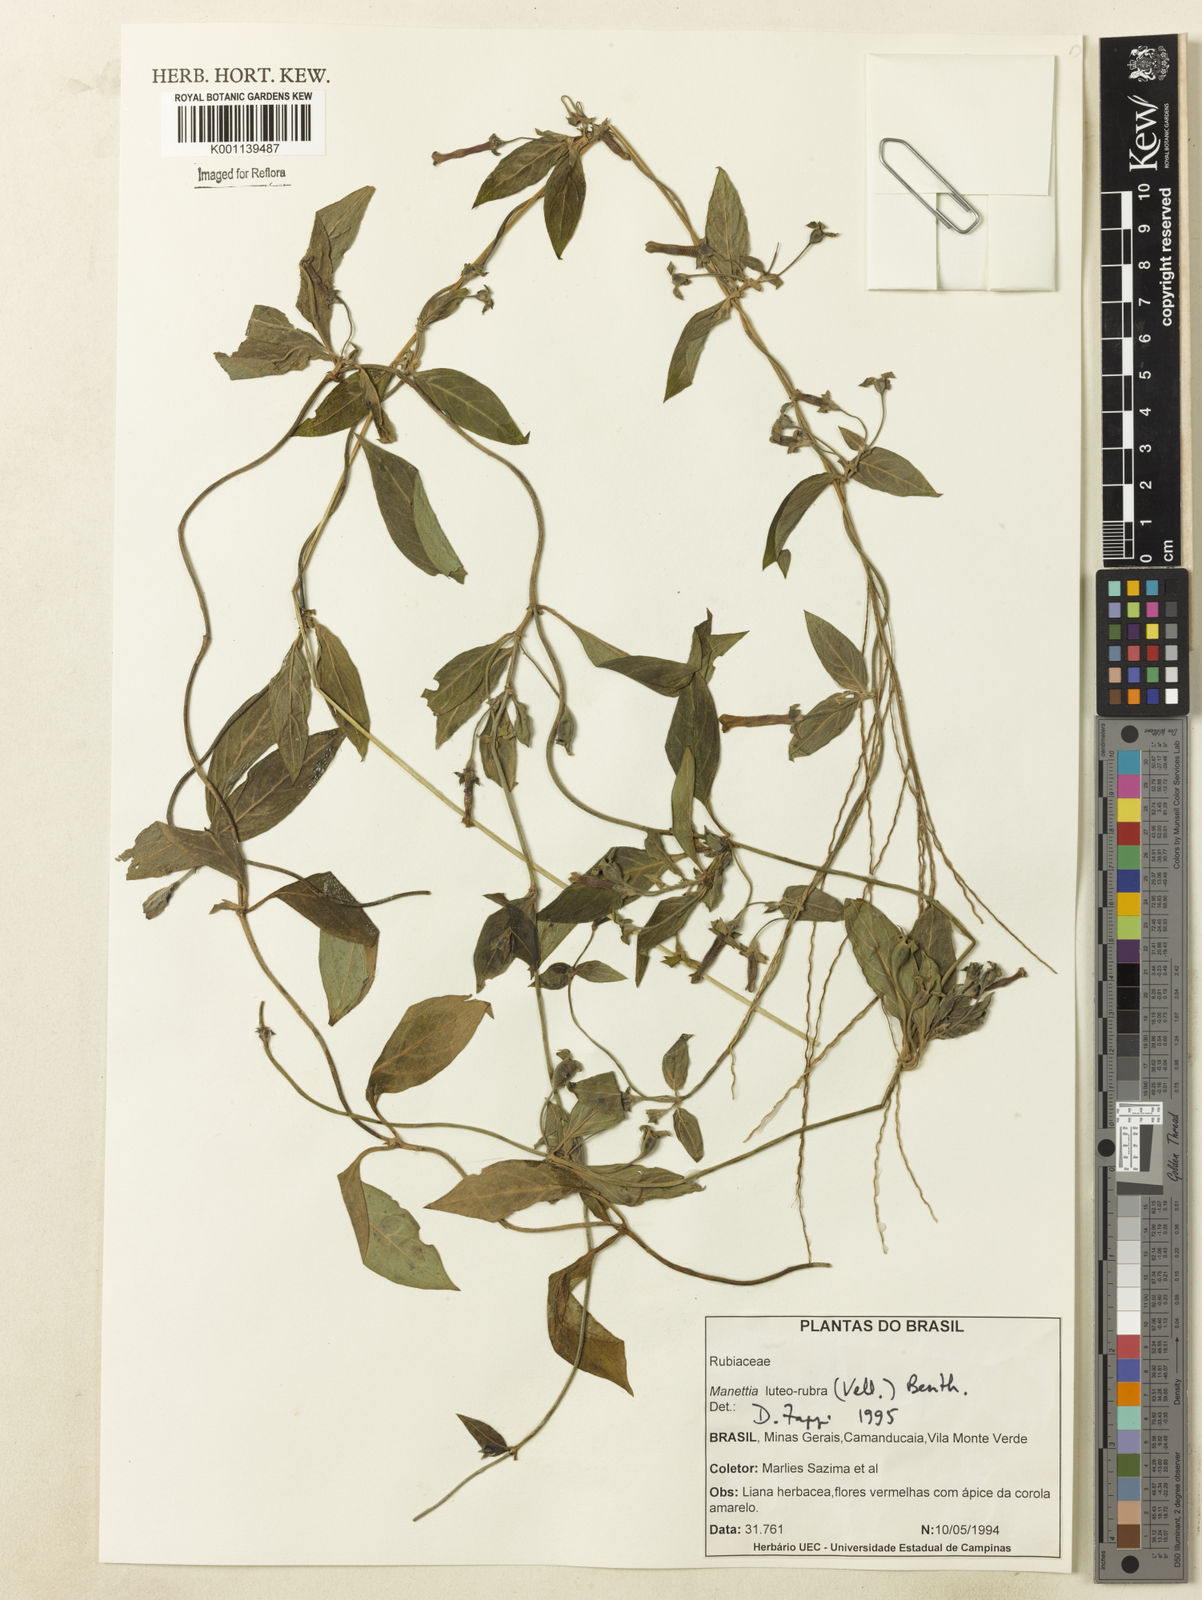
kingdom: Plantae
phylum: Tracheophyta
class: Magnoliopsida
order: Gentianales
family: Rubiaceae
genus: Manettia
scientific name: Manettia luteorubra
